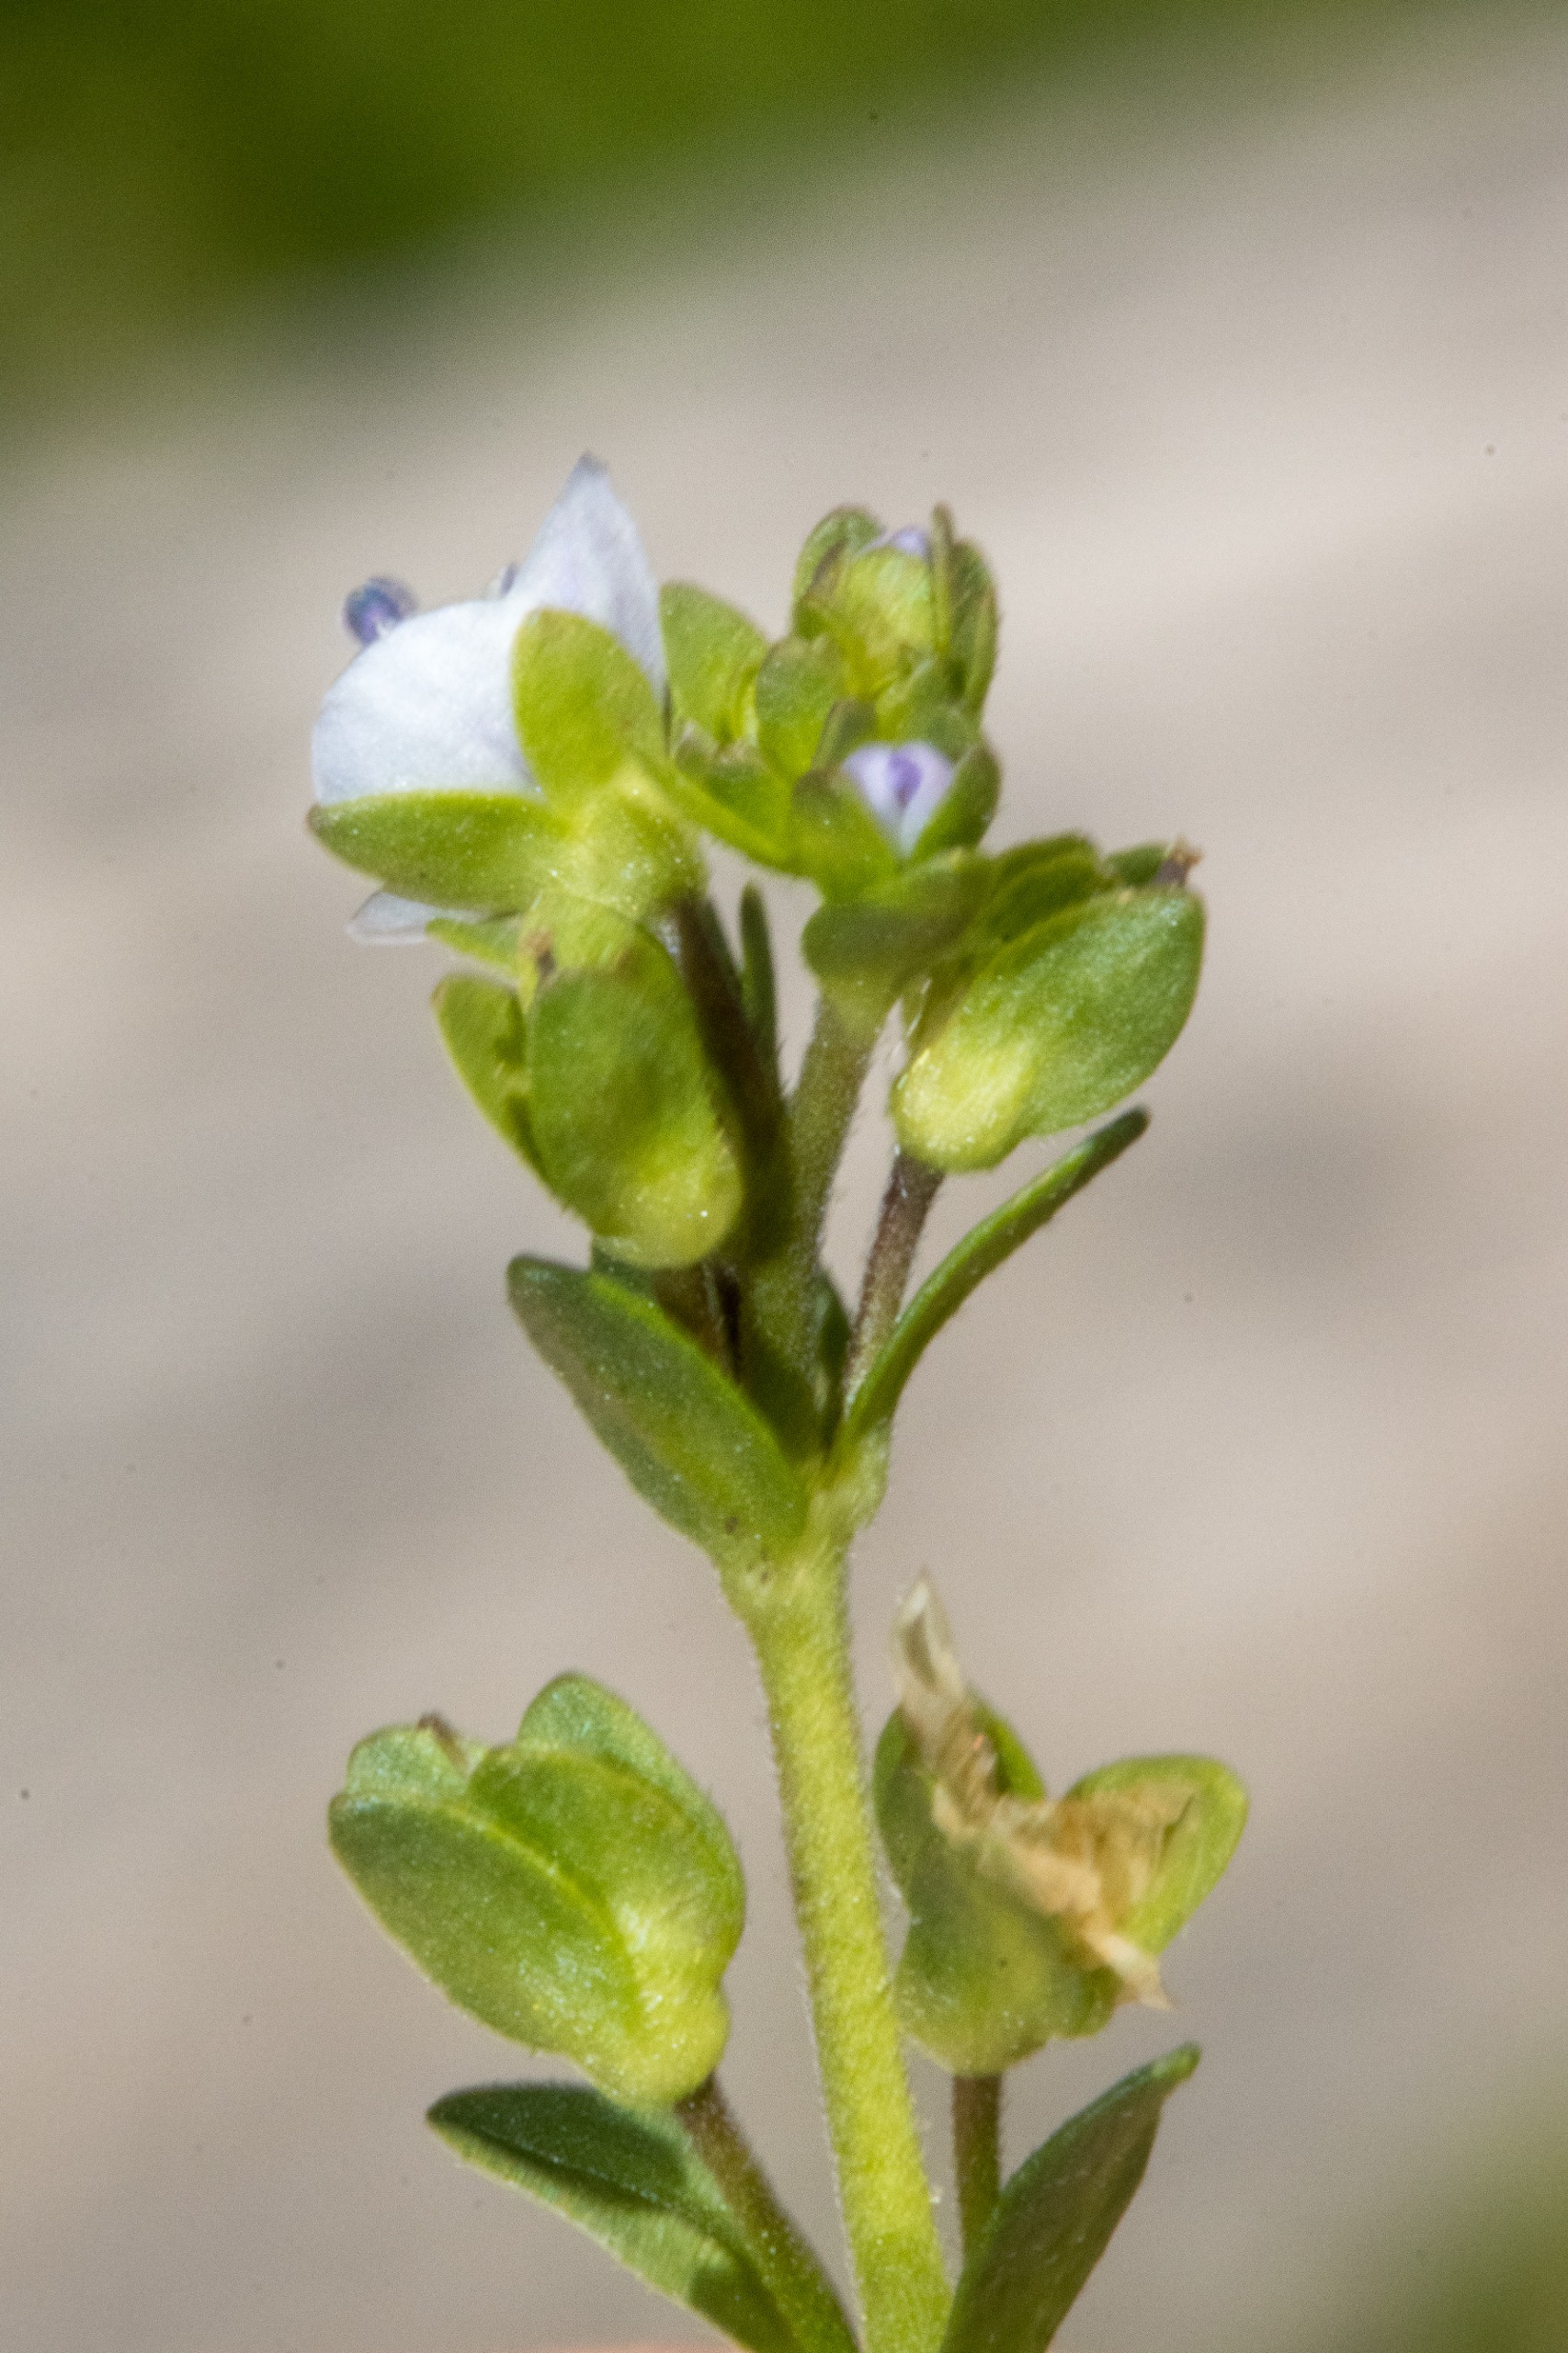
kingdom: Plantae
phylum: Tracheophyta
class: Magnoliopsida
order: Lamiales
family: Plantaginaceae
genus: Veronica
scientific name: Veronica serpyllifolia
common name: Glat ærenpris
